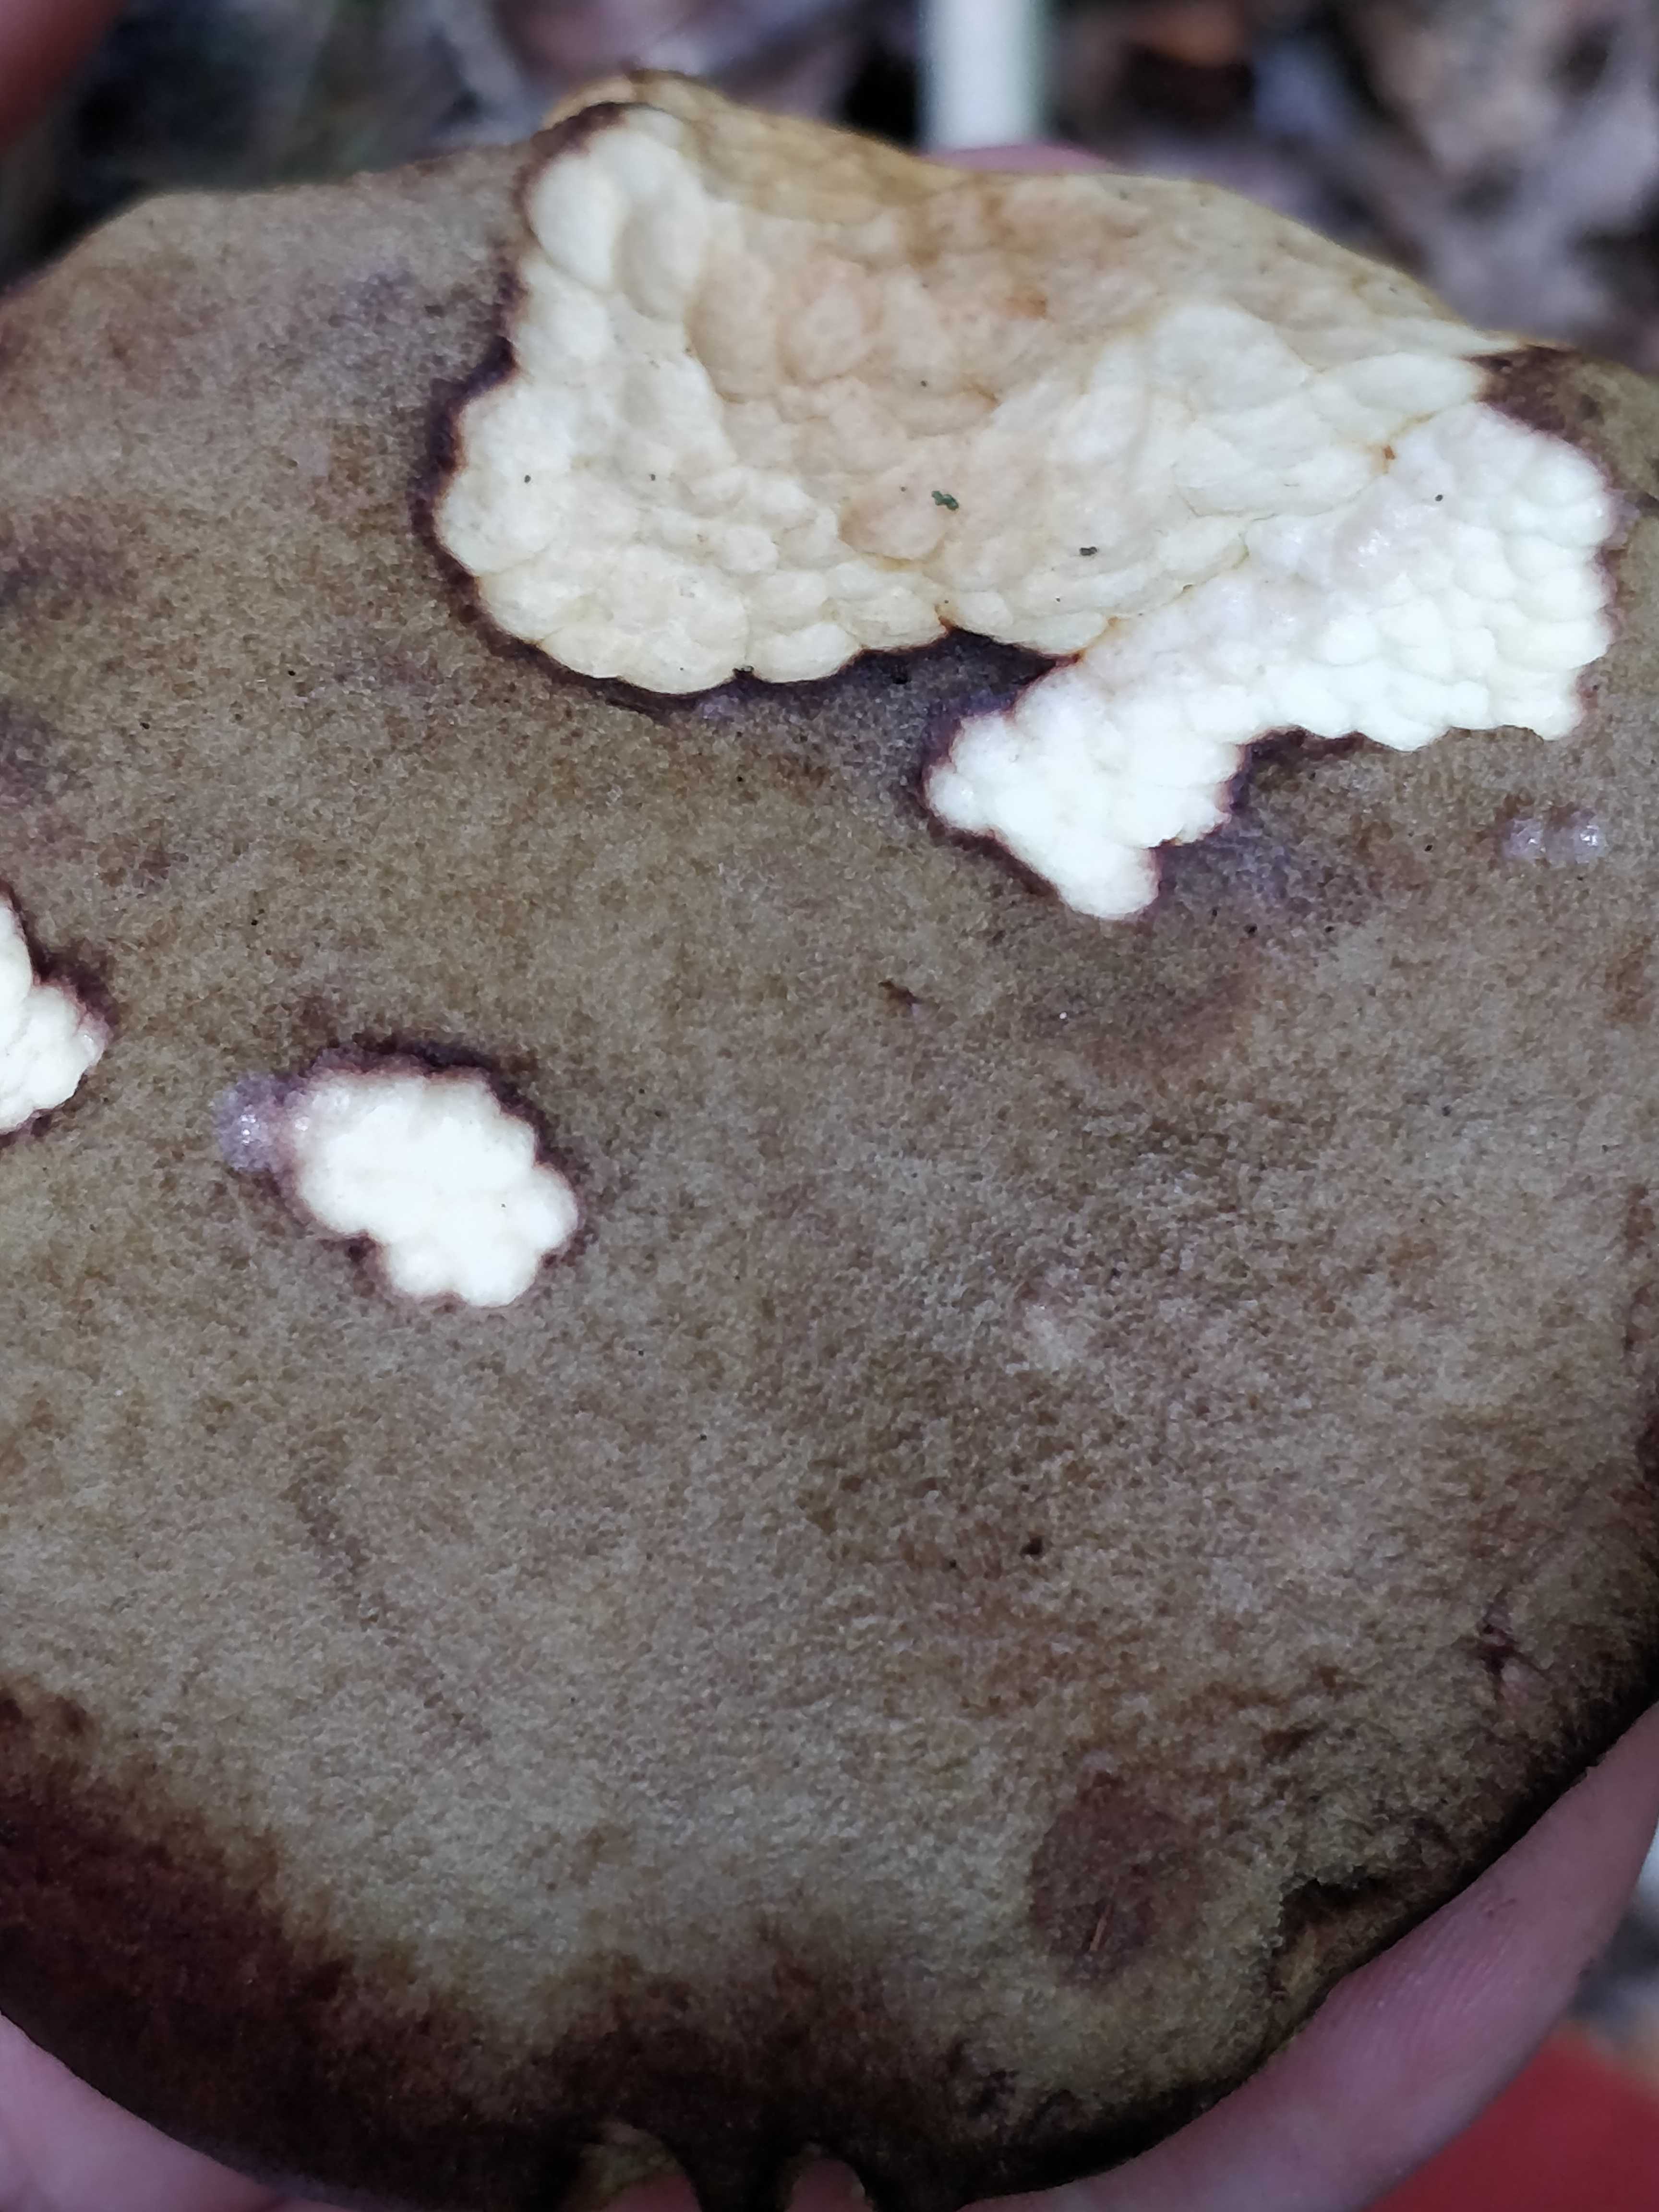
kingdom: Fungi
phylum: Basidiomycota
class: Agaricomycetes
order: Boletales
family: Boletaceae
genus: Xerocomus
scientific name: Xerocomus ferrugineus
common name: vaskeskinds-rørhat
